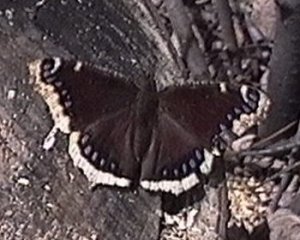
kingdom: Animalia
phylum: Arthropoda
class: Insecta
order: Lepidoptera
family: Nymphalidae
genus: Nymphalis
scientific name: Nymphalis antiopa
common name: Mourning Cloak
